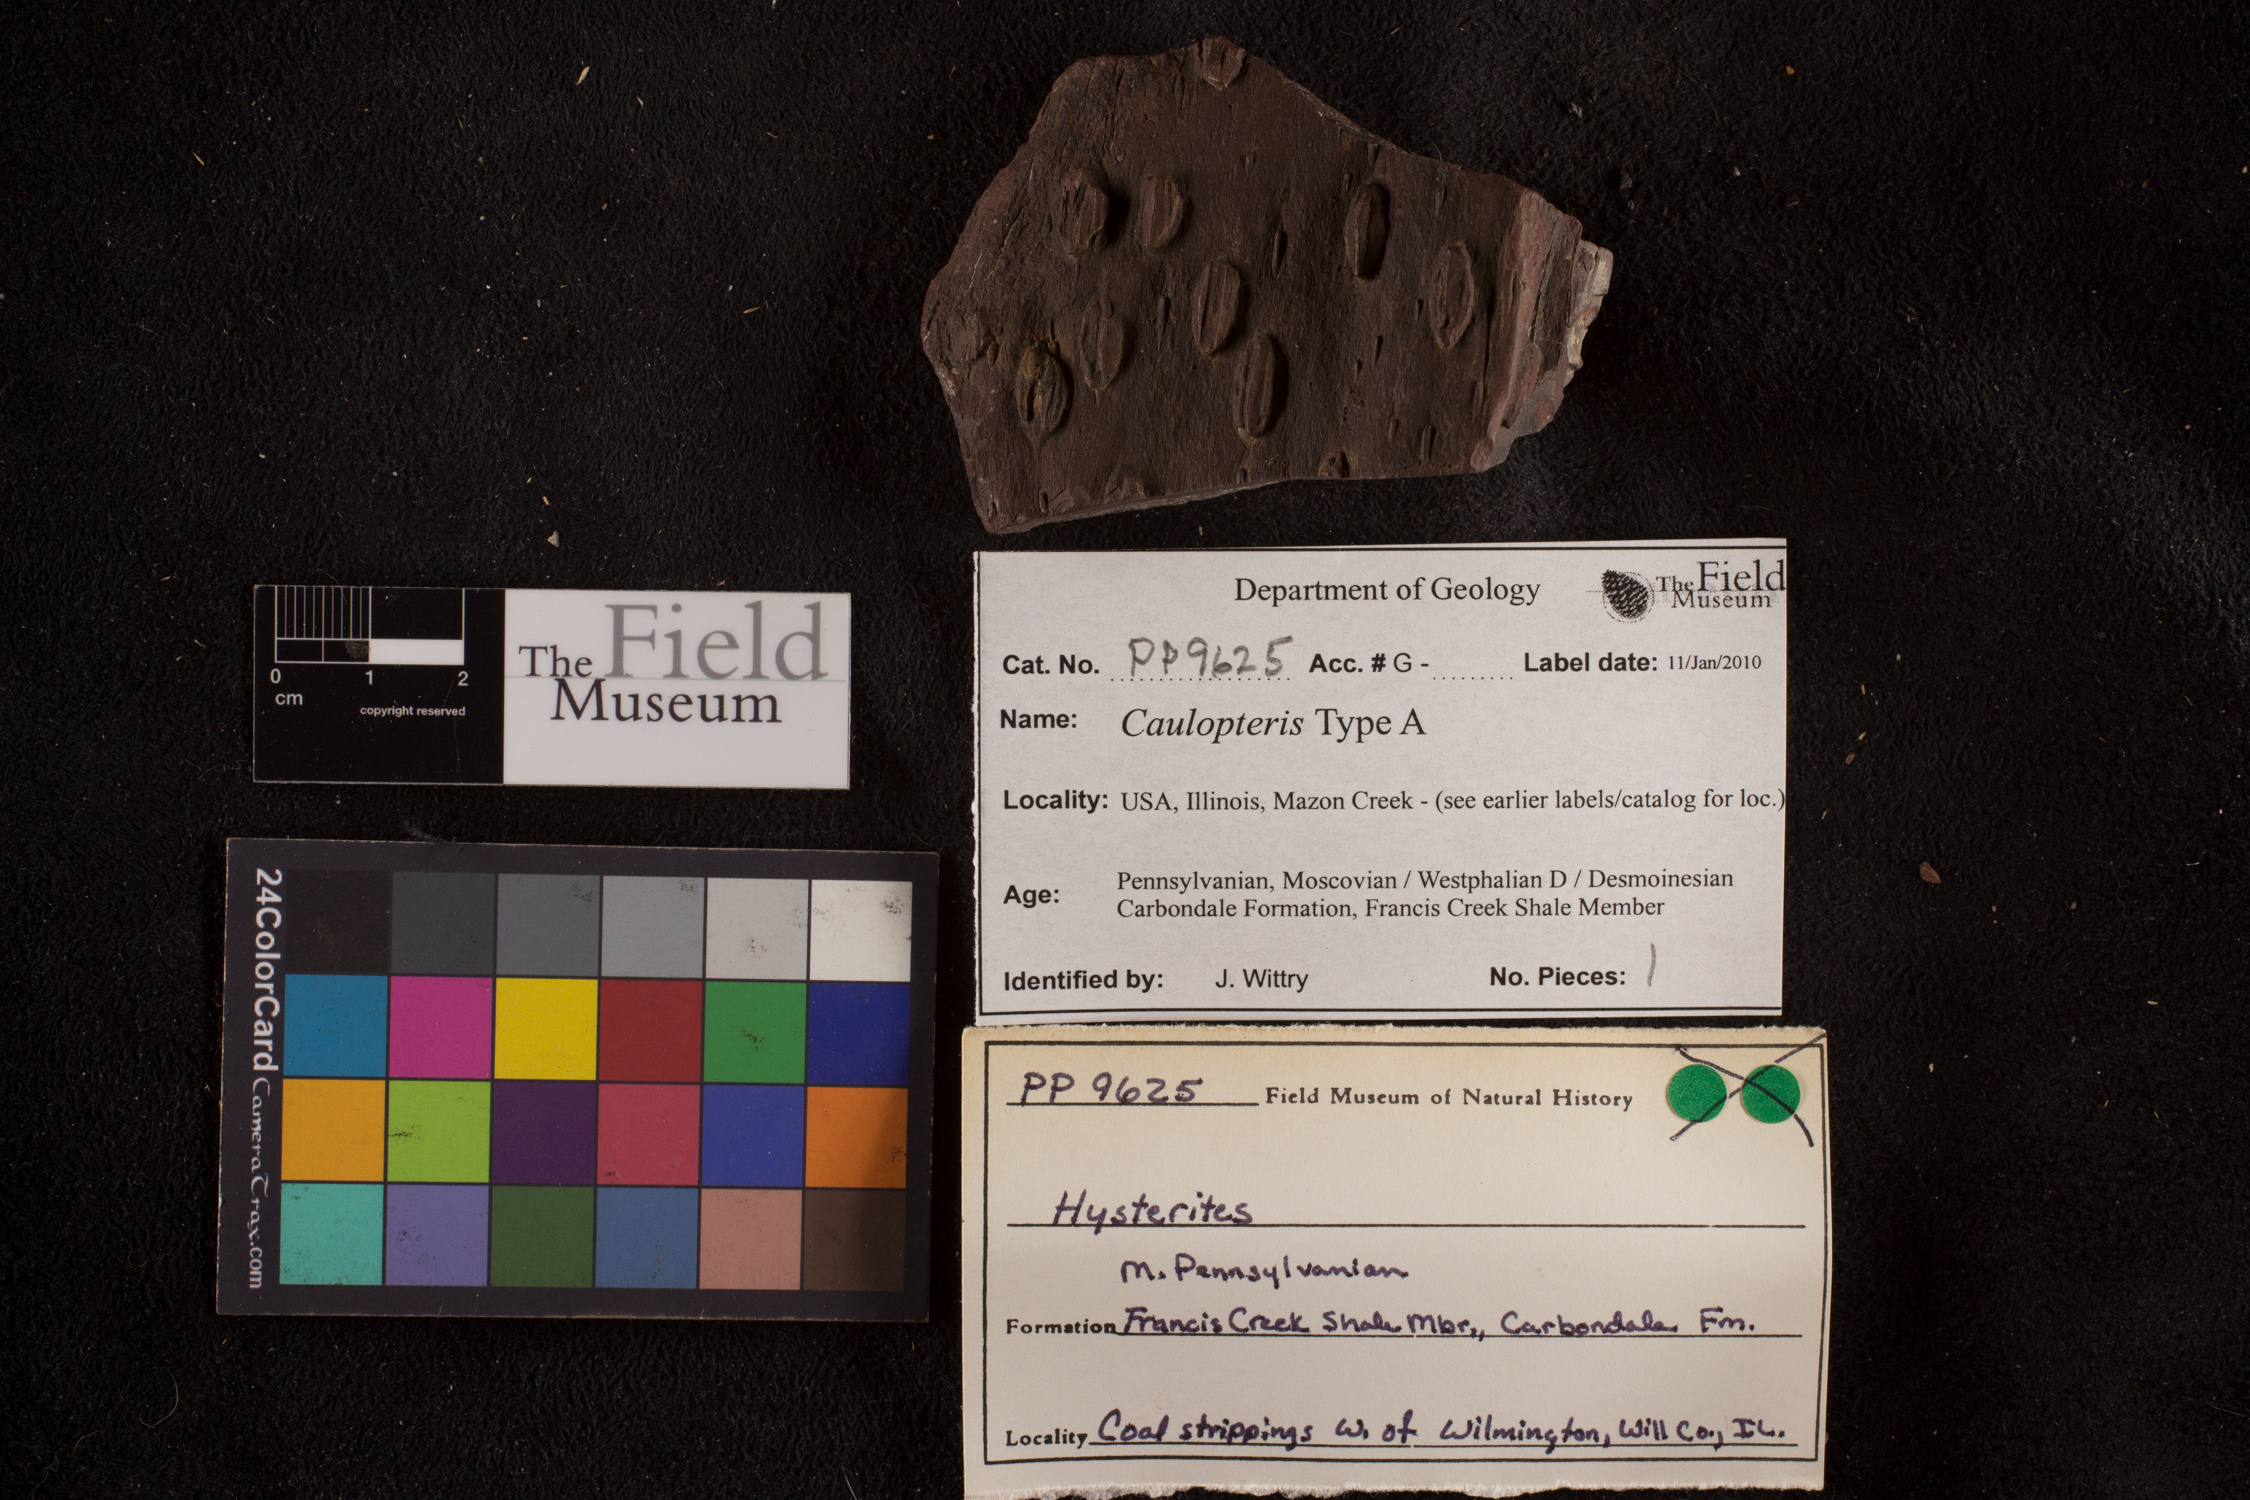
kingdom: Plantae
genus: Calamophyllites
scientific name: Calamophyllites
